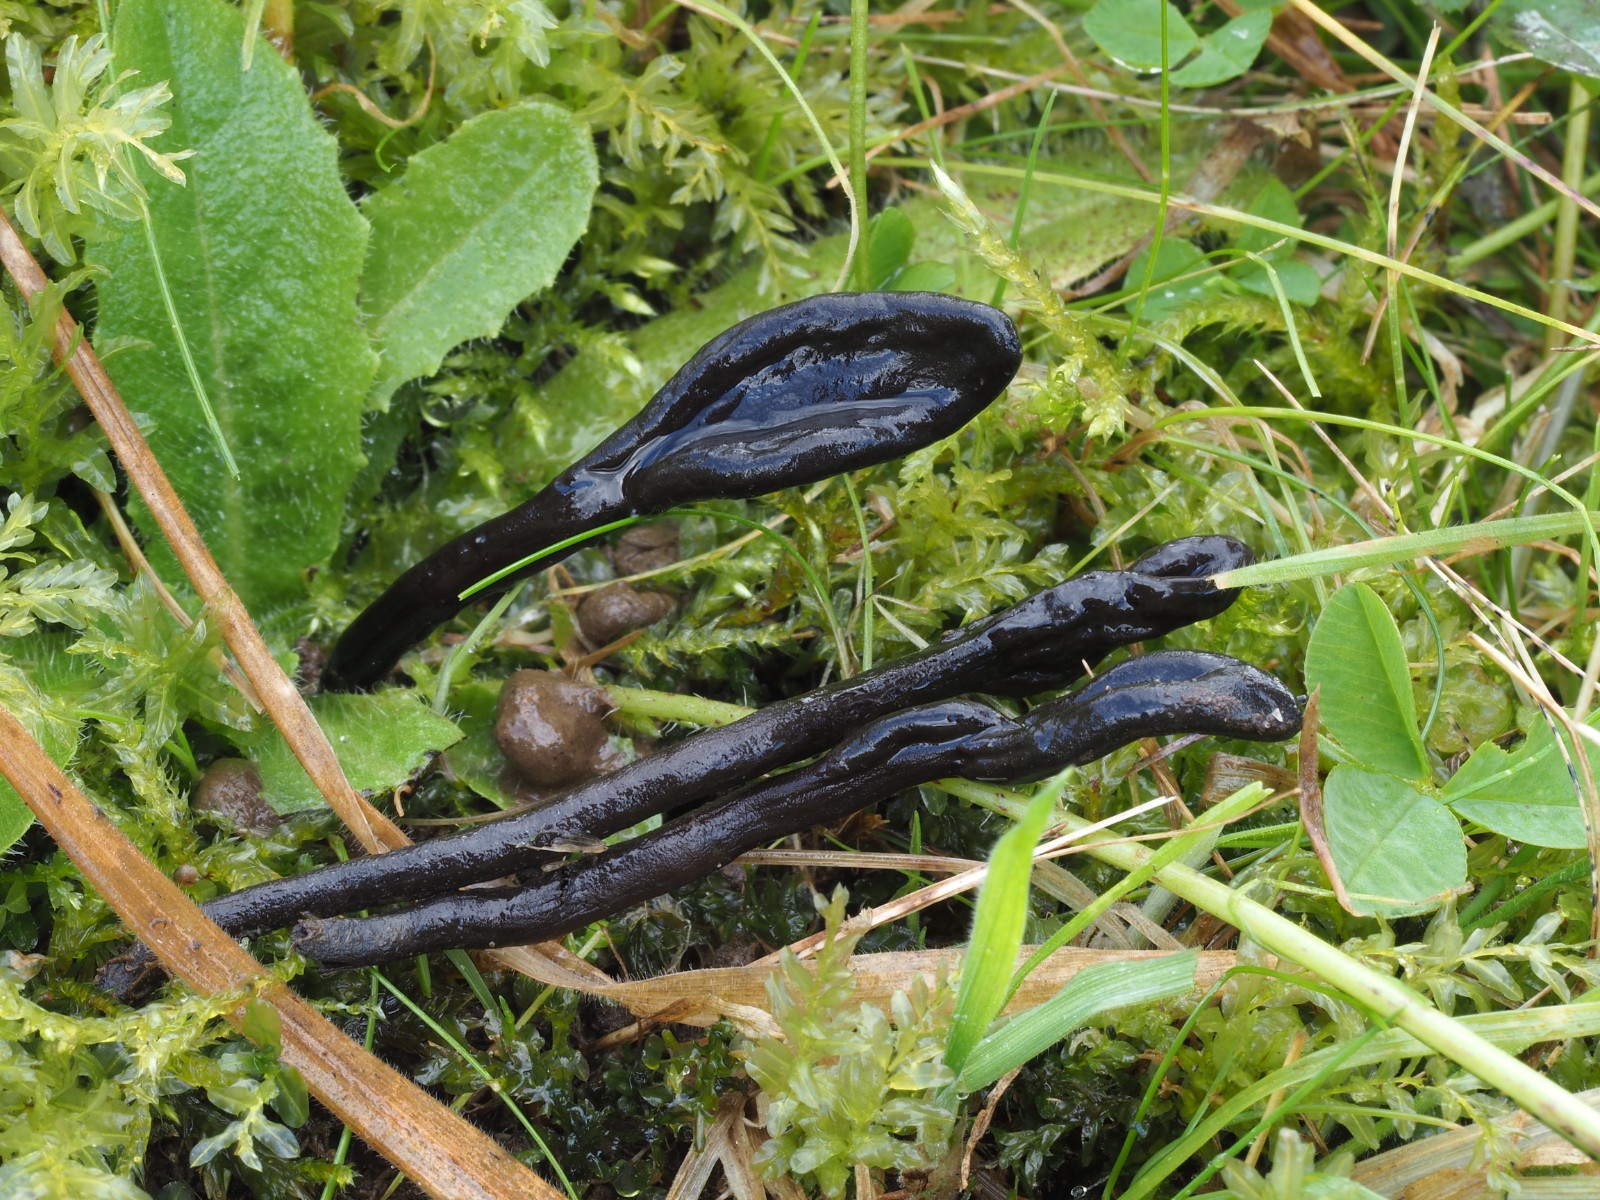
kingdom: Fungi
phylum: Ascomycota
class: Geoglossomycetes
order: Geoglossales
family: Geoglossaceae
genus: Geoglossum
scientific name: Geoglossum umbratile
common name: slank jordtunge
